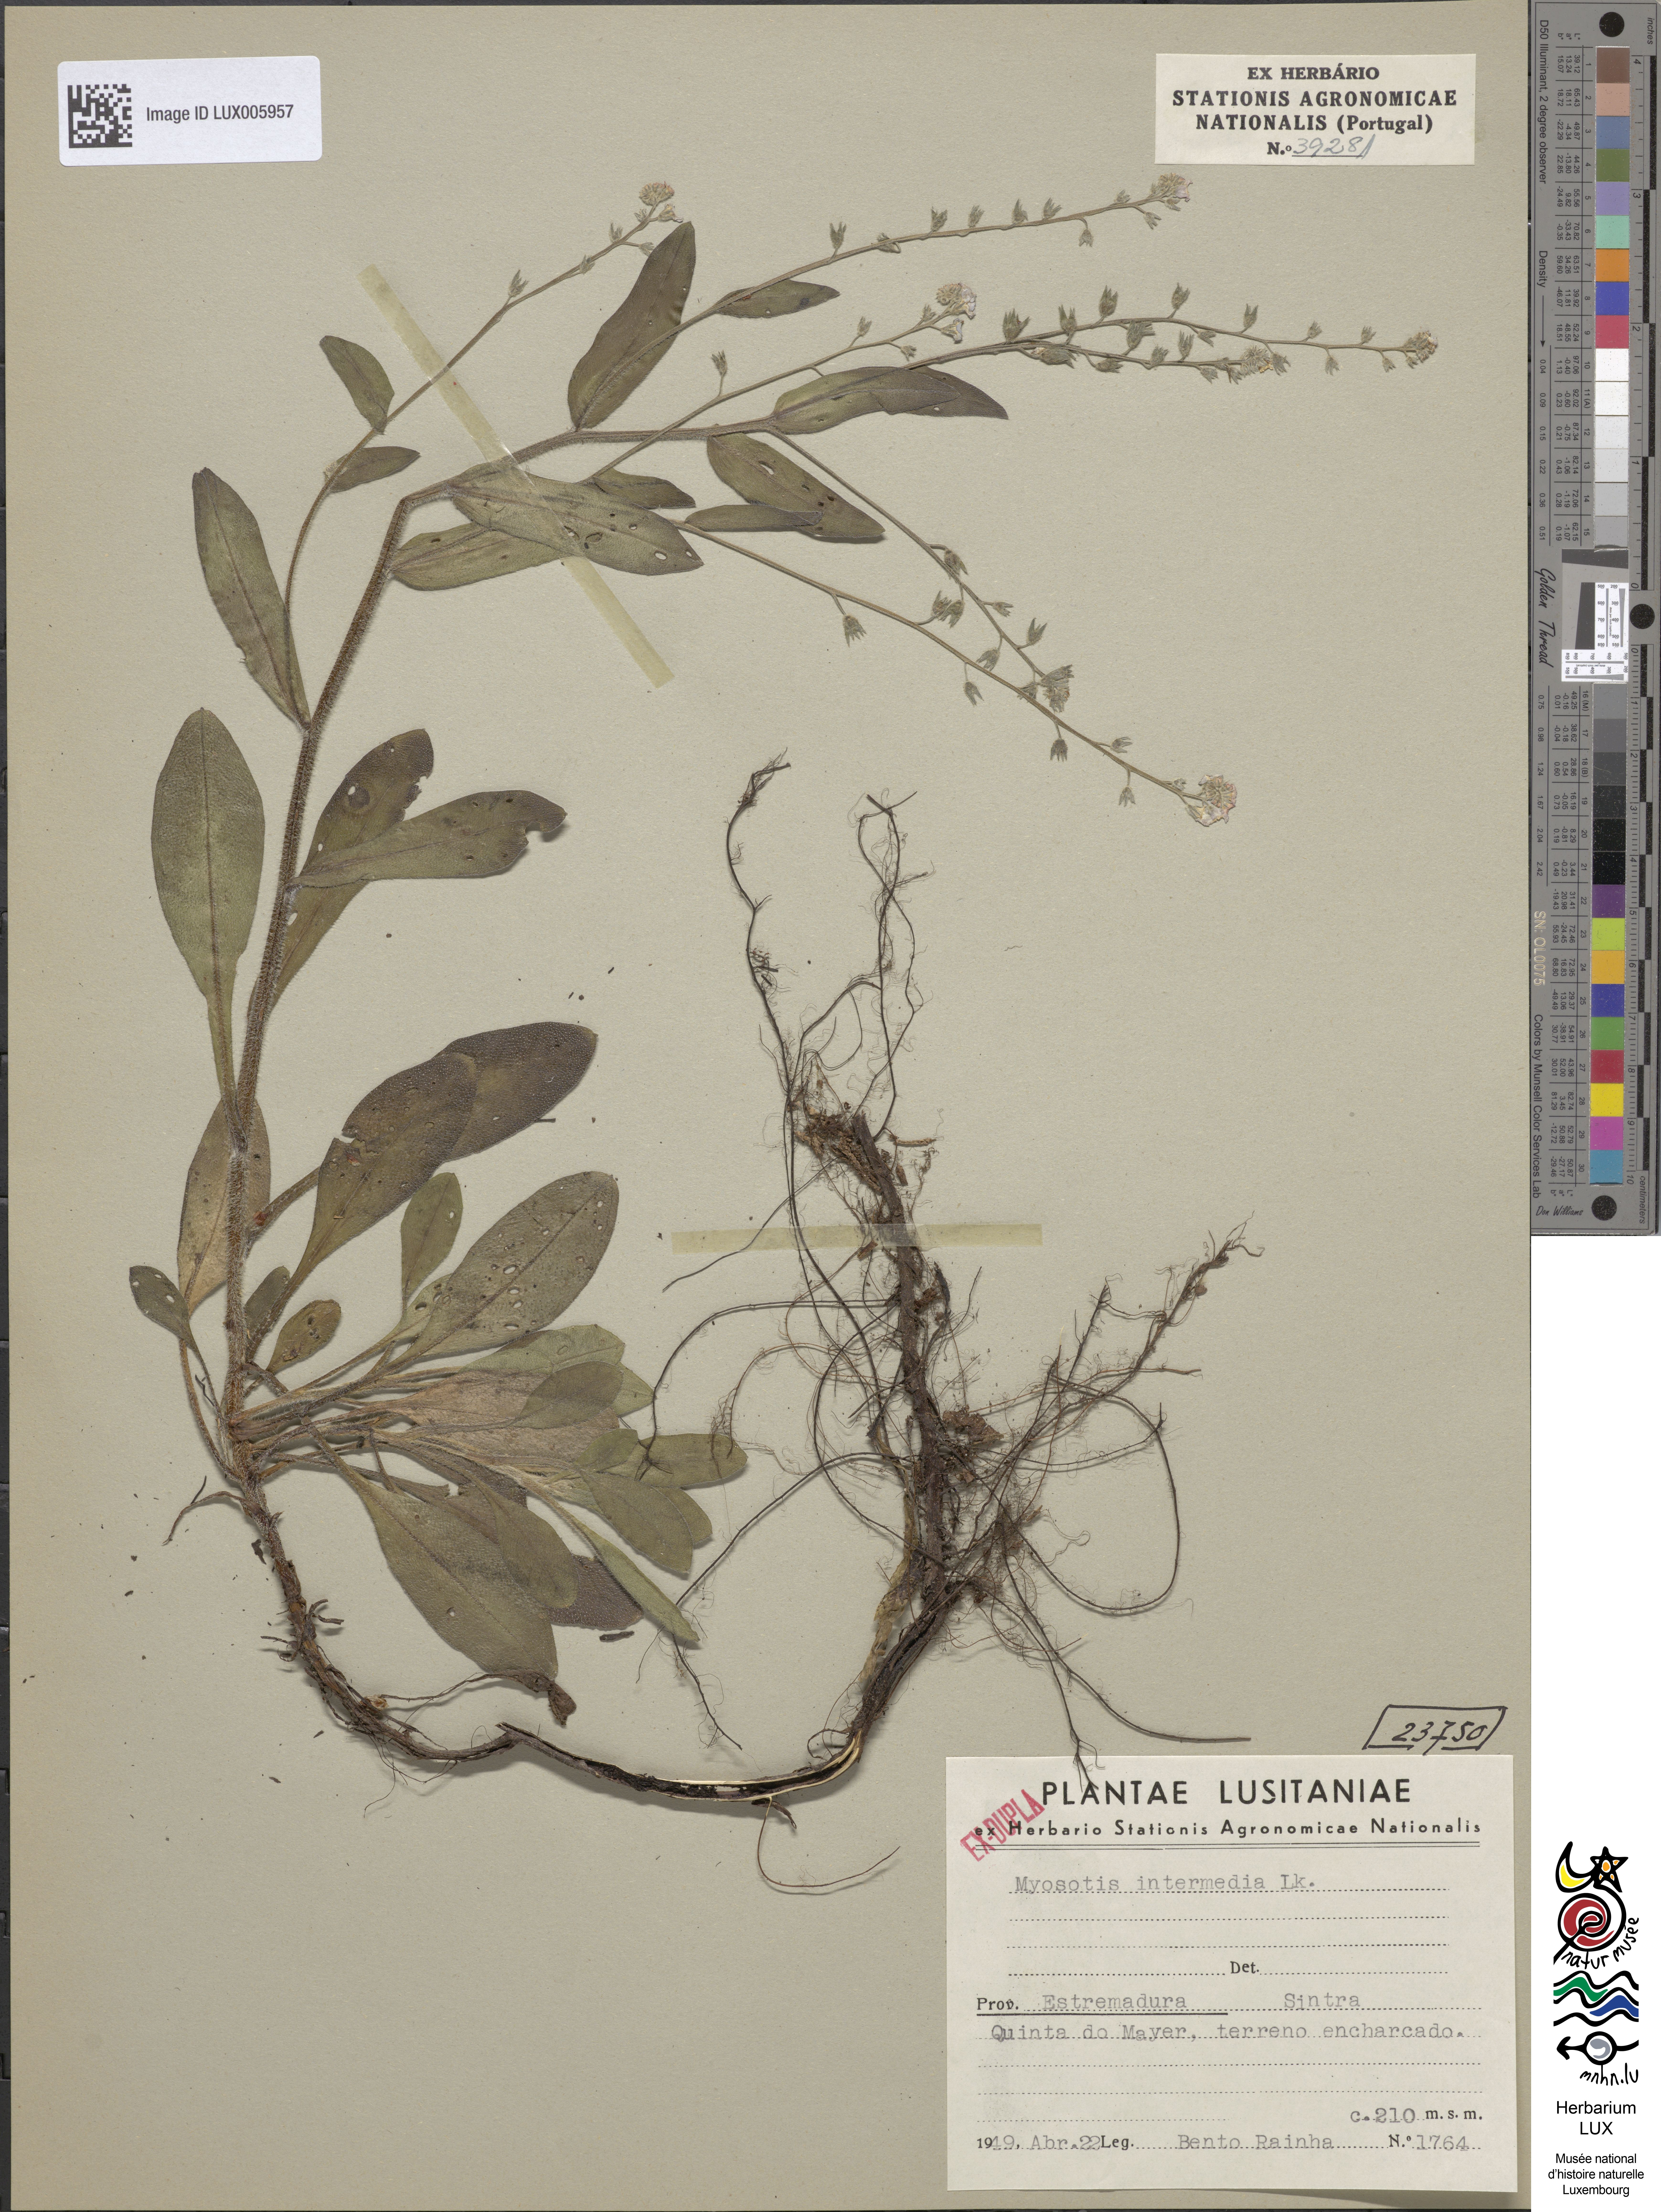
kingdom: Plantae
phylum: Tracheophyta
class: Magnoliopsida
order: Boraginales
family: Boraginaceae
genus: Myosotis
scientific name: Myosotis arvensis
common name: Field forget-me-not
